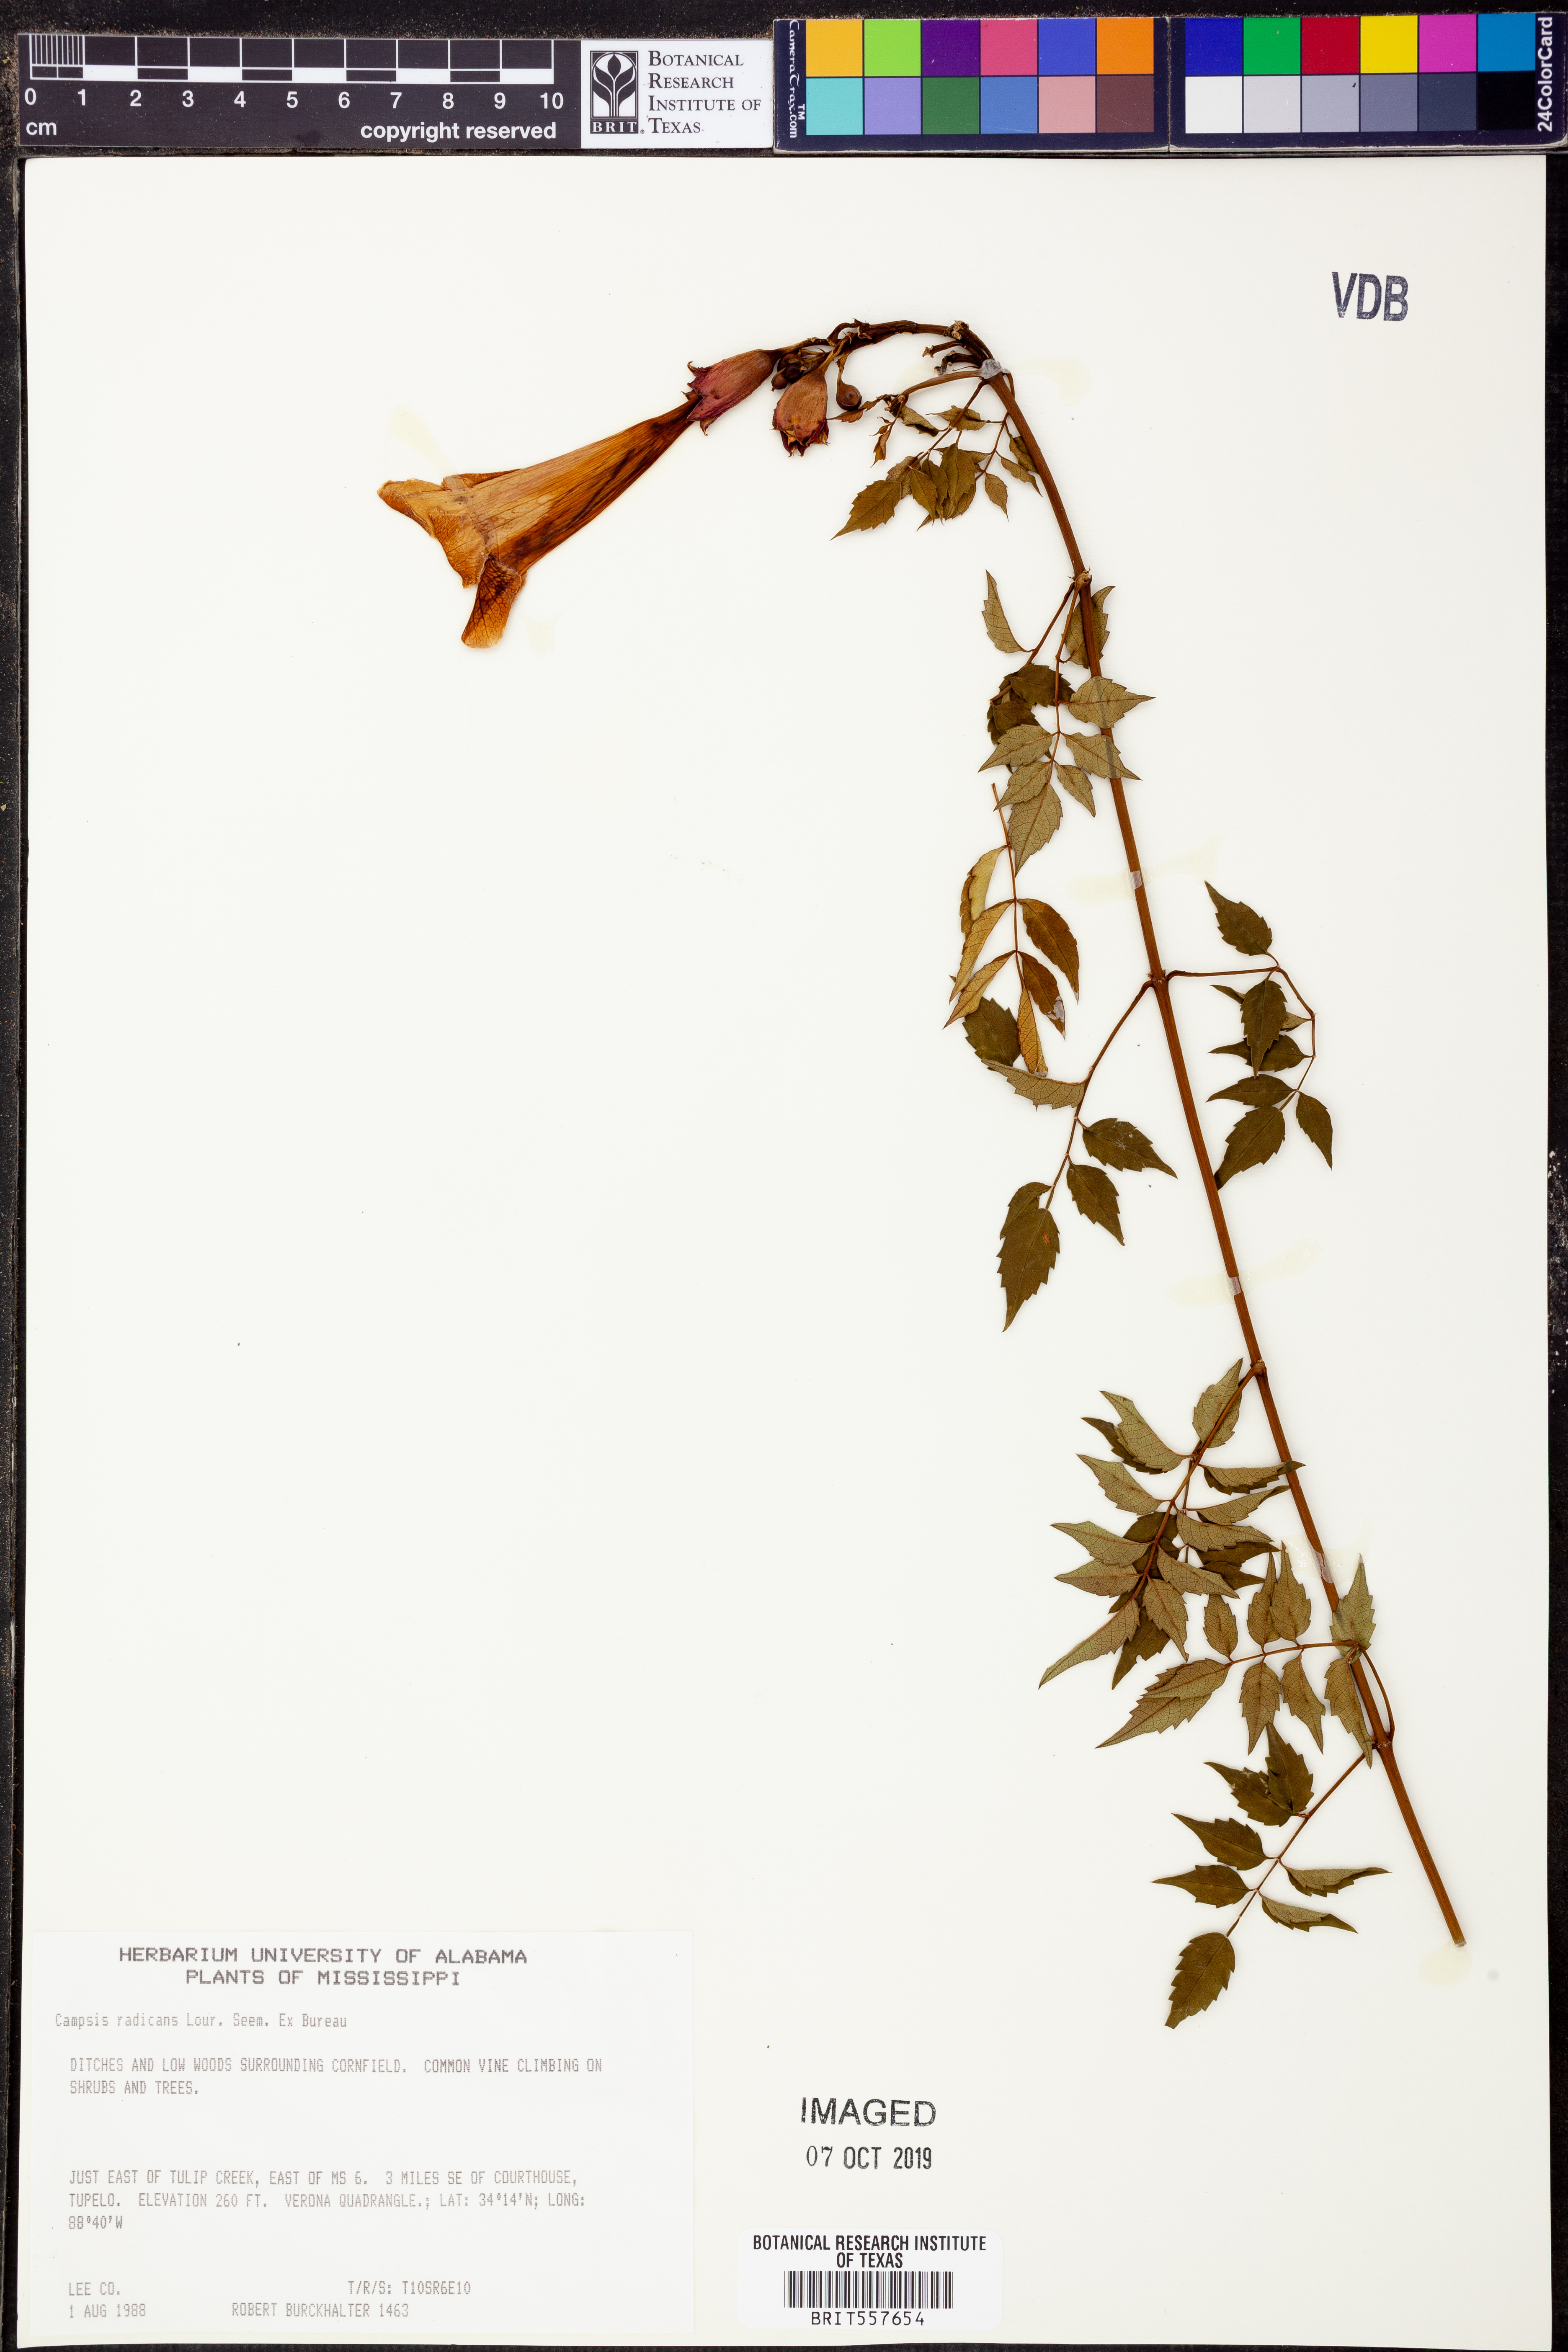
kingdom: Plantae
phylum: Tracheophyta
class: Magnoliopsida
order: Lamiales
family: Bignoniaceae
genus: Campsis
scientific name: Campsis radicans
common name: Trumpet-creeper
